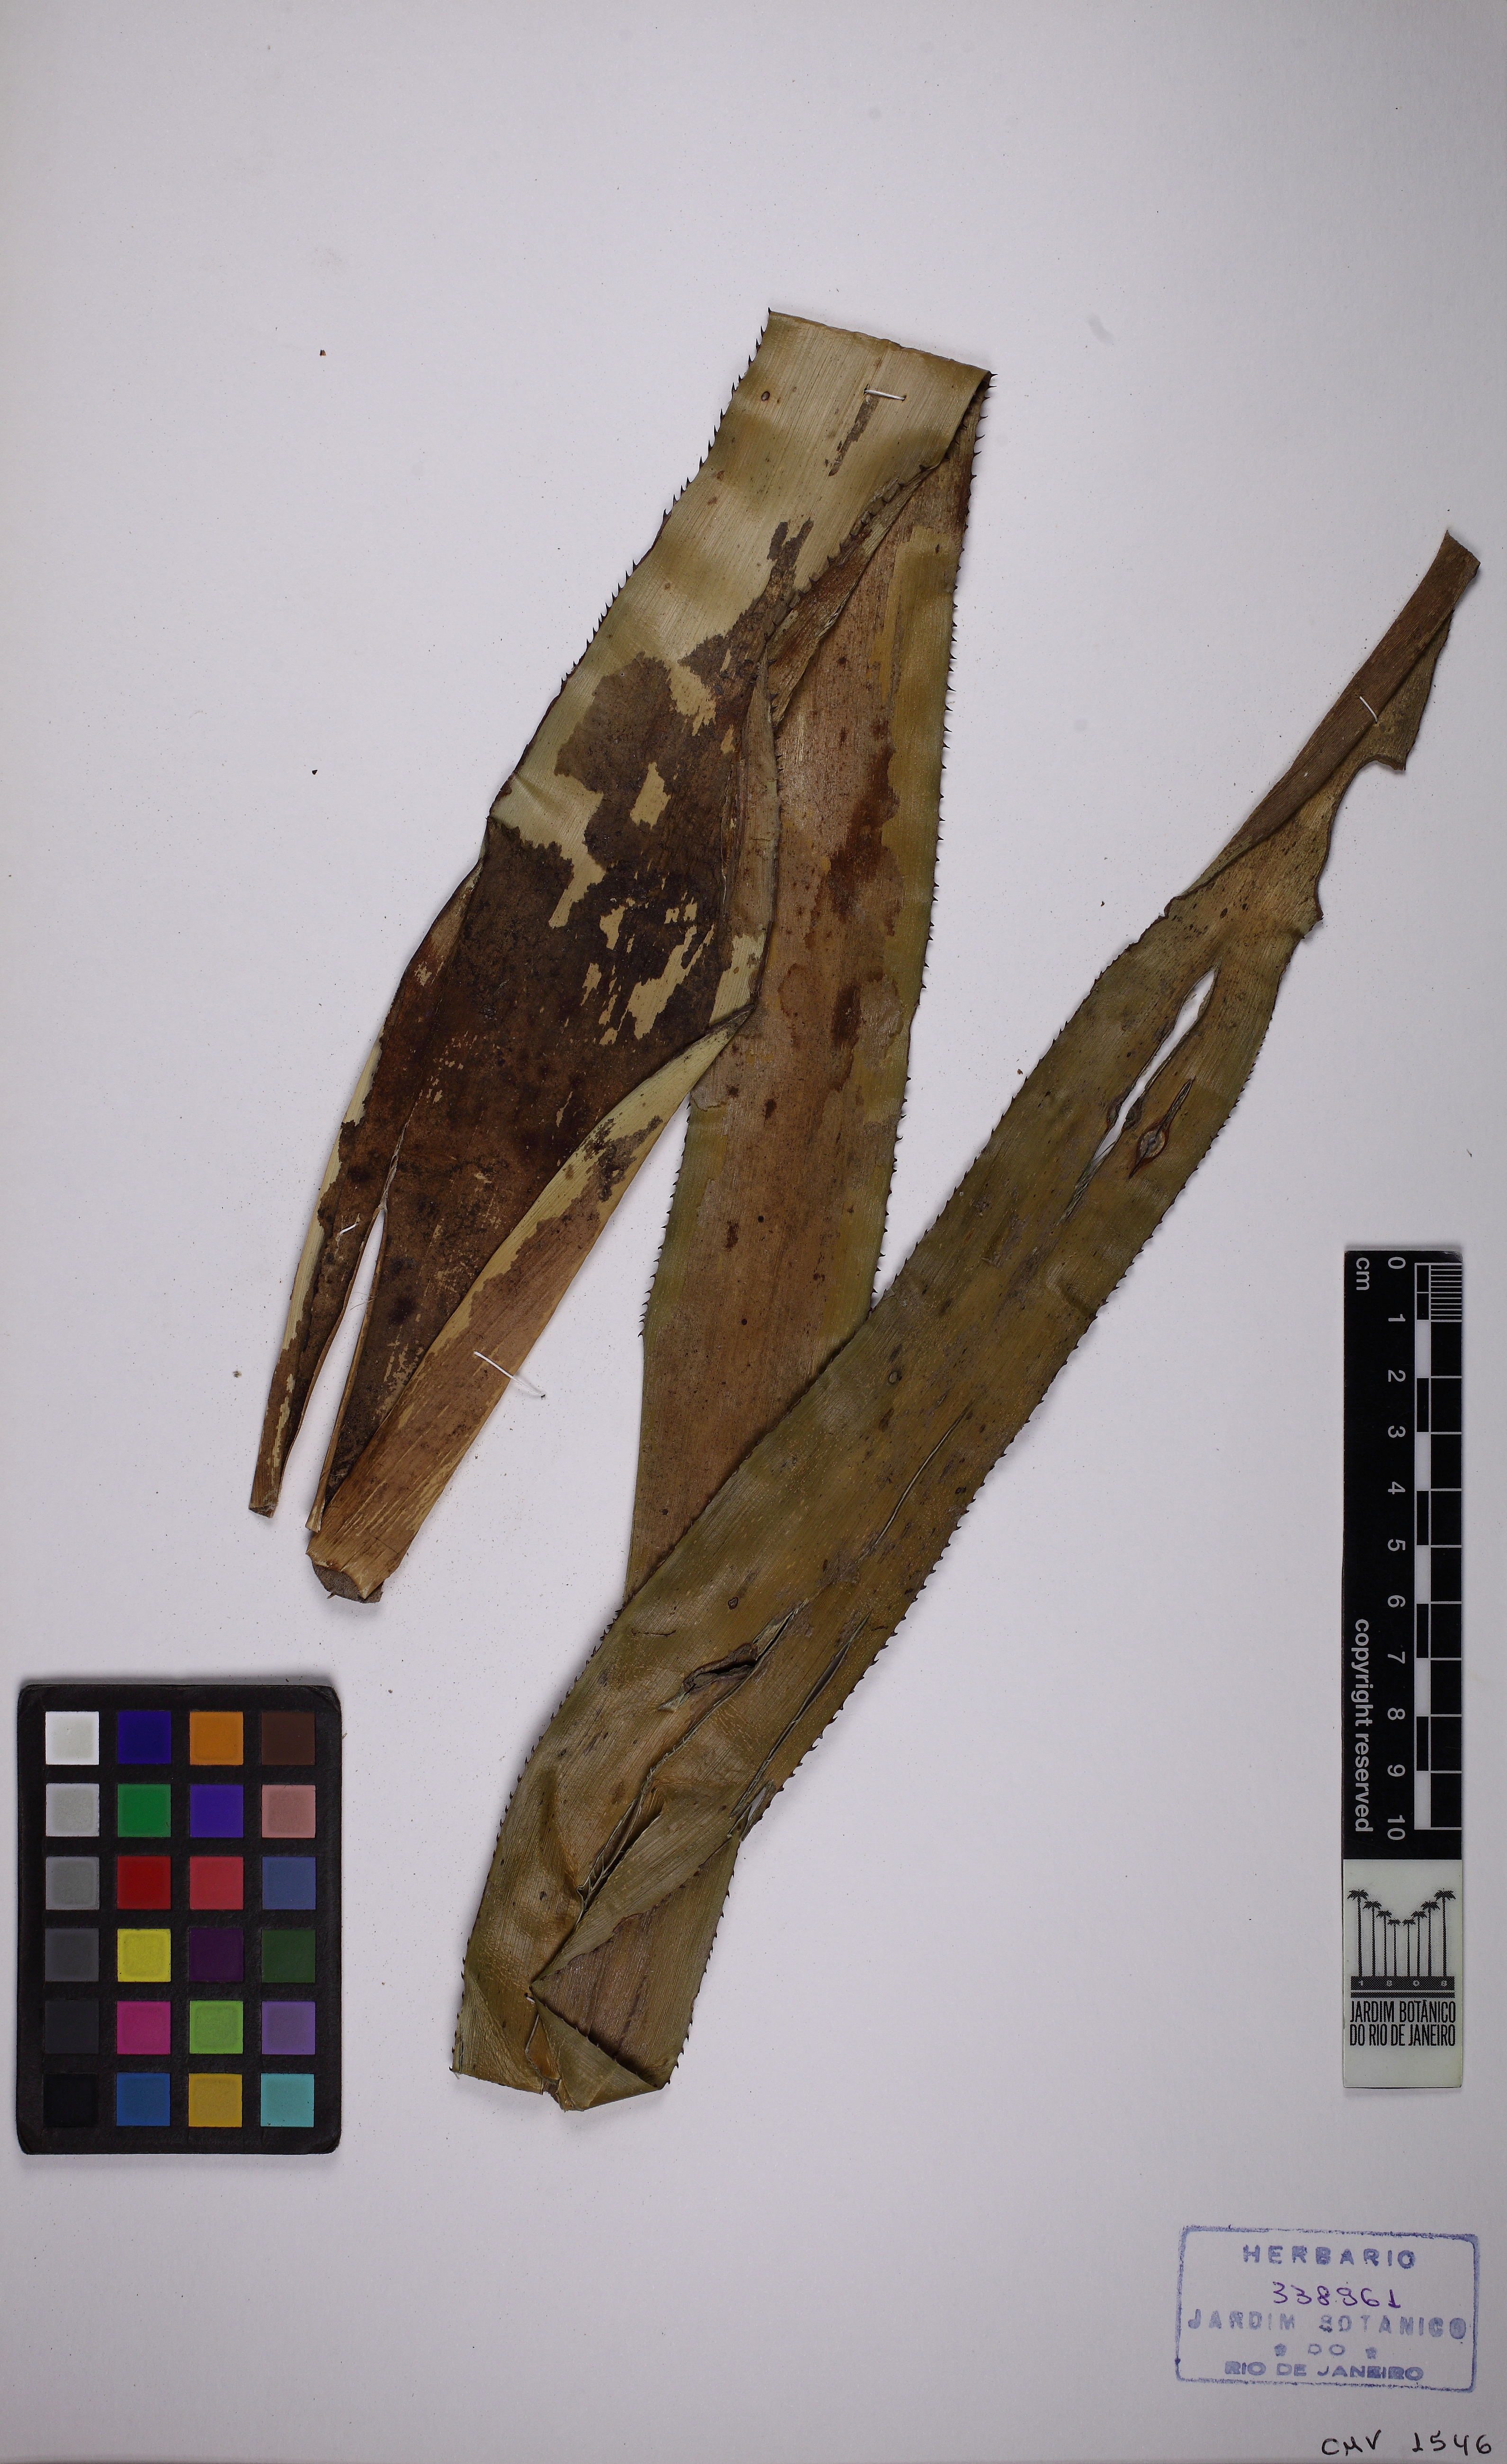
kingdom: Plantae
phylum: Tracheophyta
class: Liliopsida
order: Poales
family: Bromeliaceae
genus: Quesnelia
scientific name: Quesnelia quesneliana
